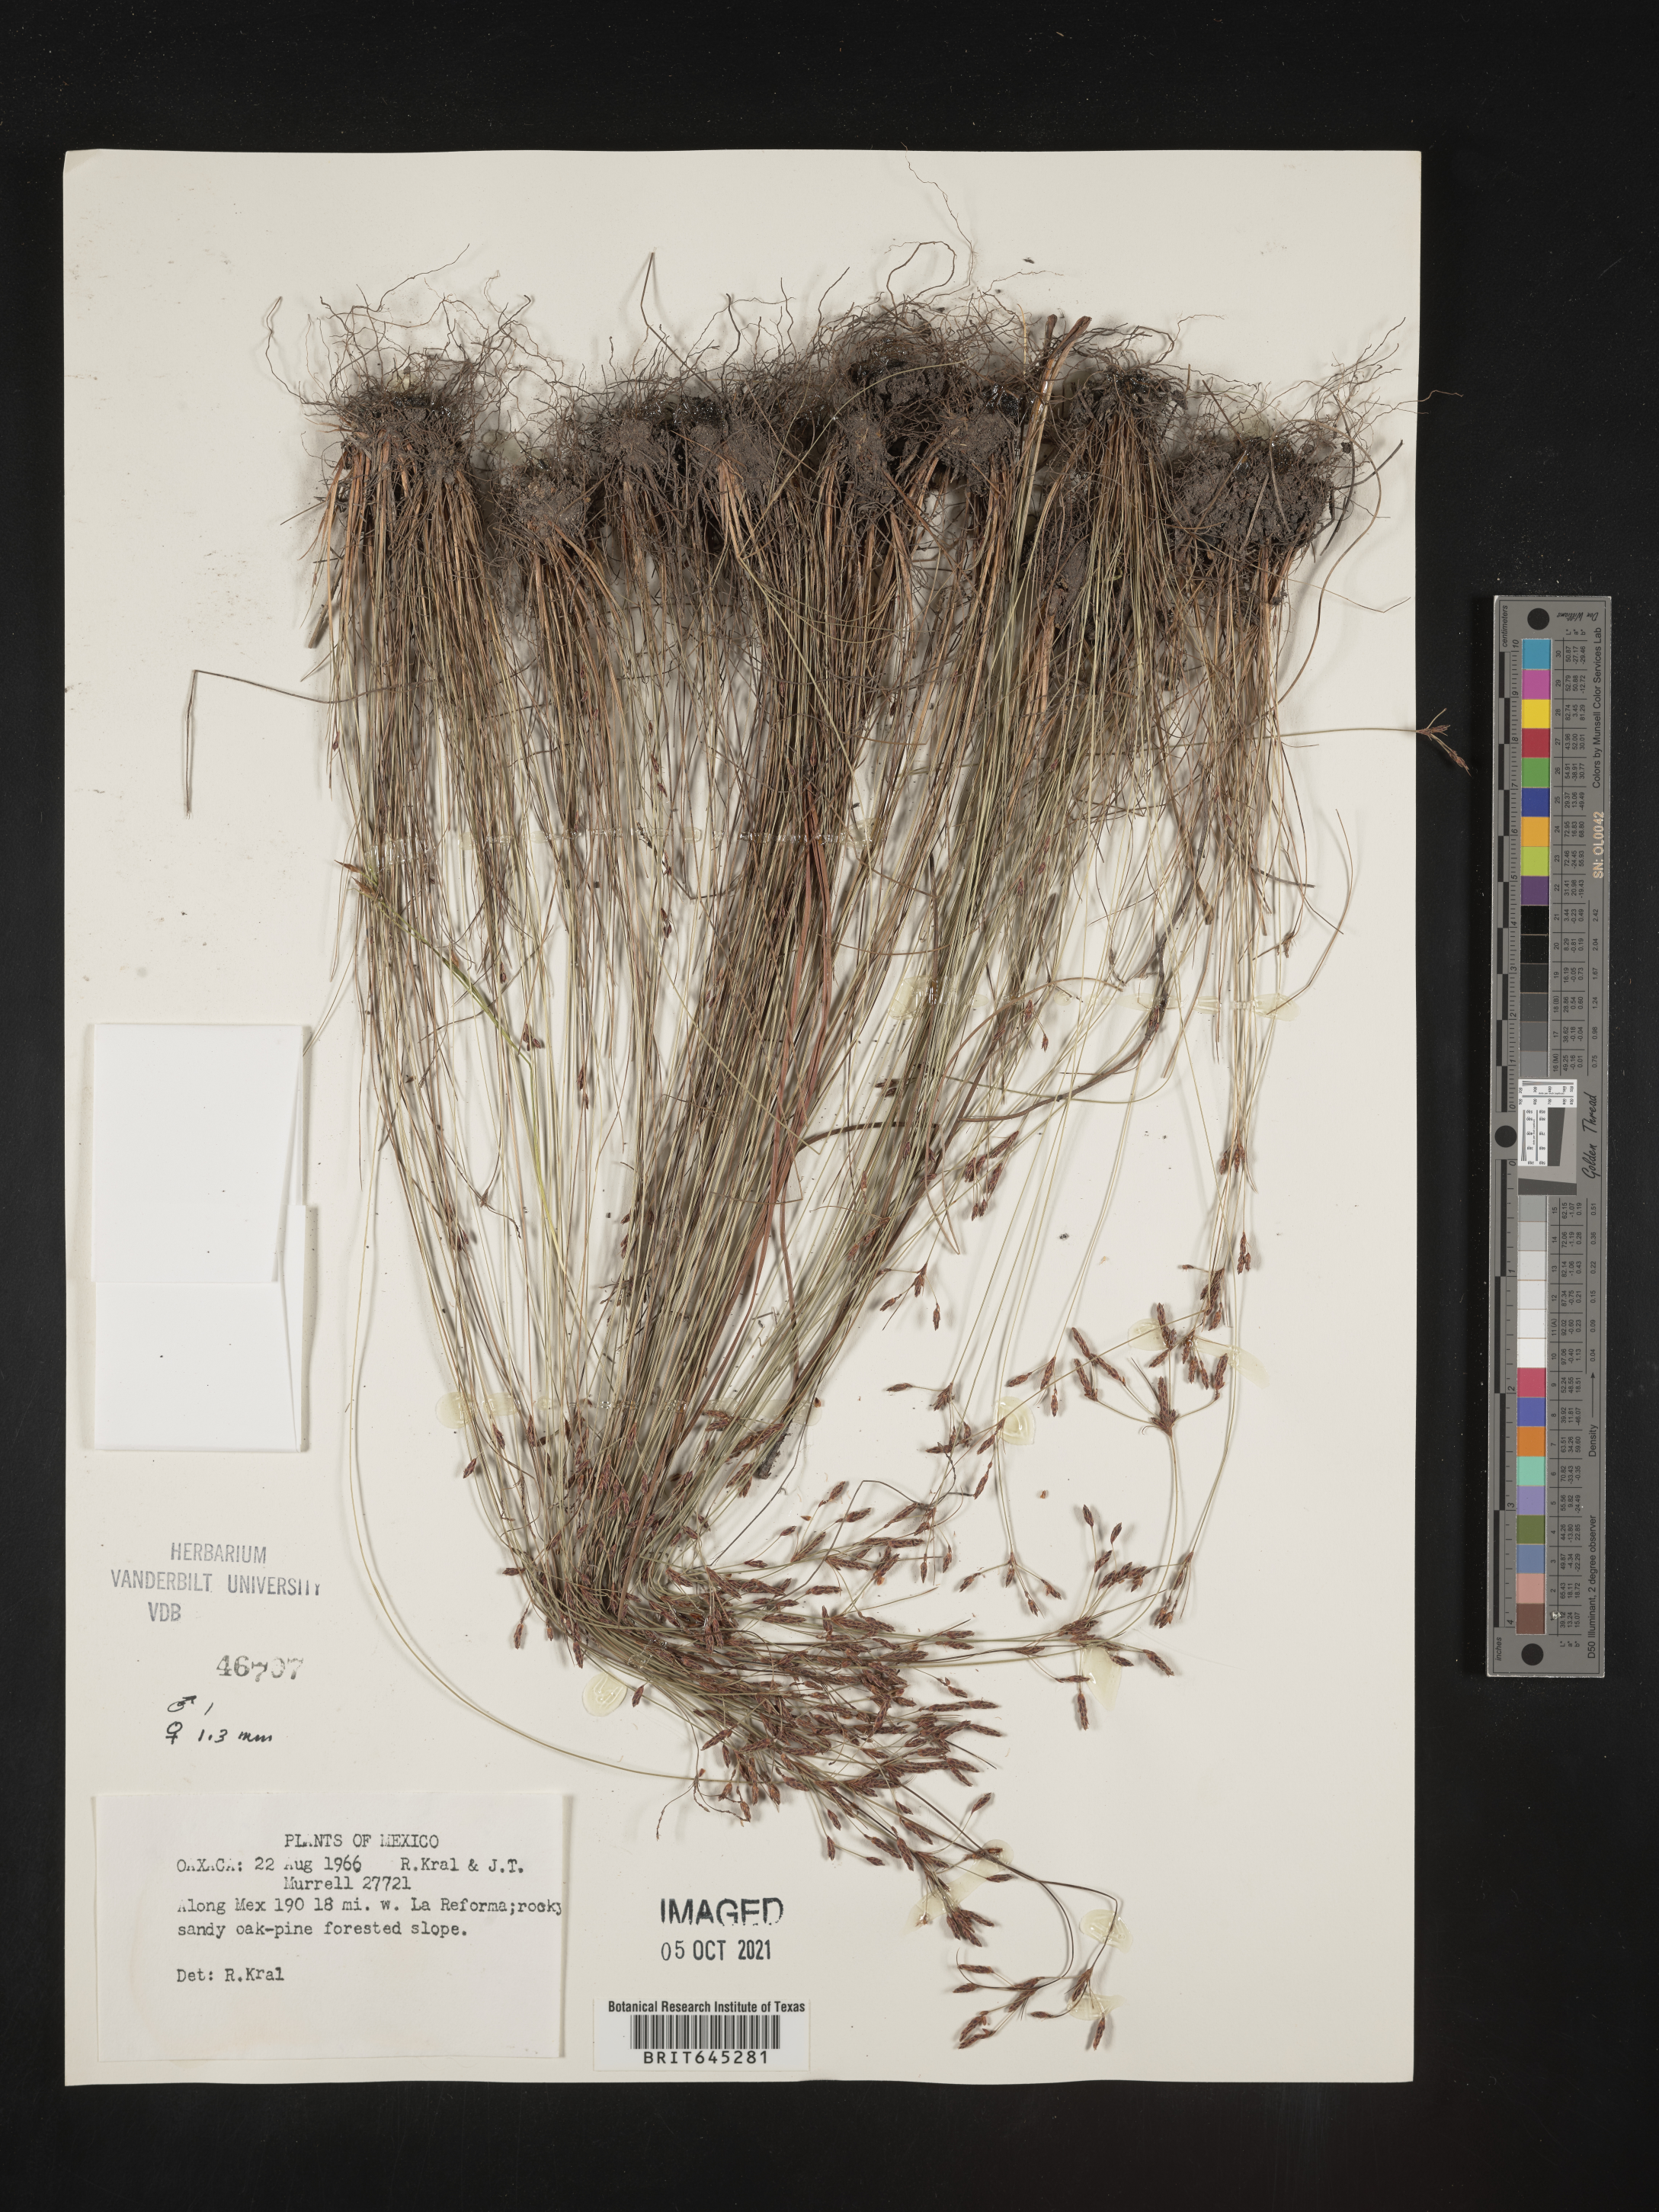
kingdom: Plantae
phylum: Tracheophyta
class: Liliopsida
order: Poales
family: Cyperaceae
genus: Bulbostylis
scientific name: Bulbostylis juncoides
